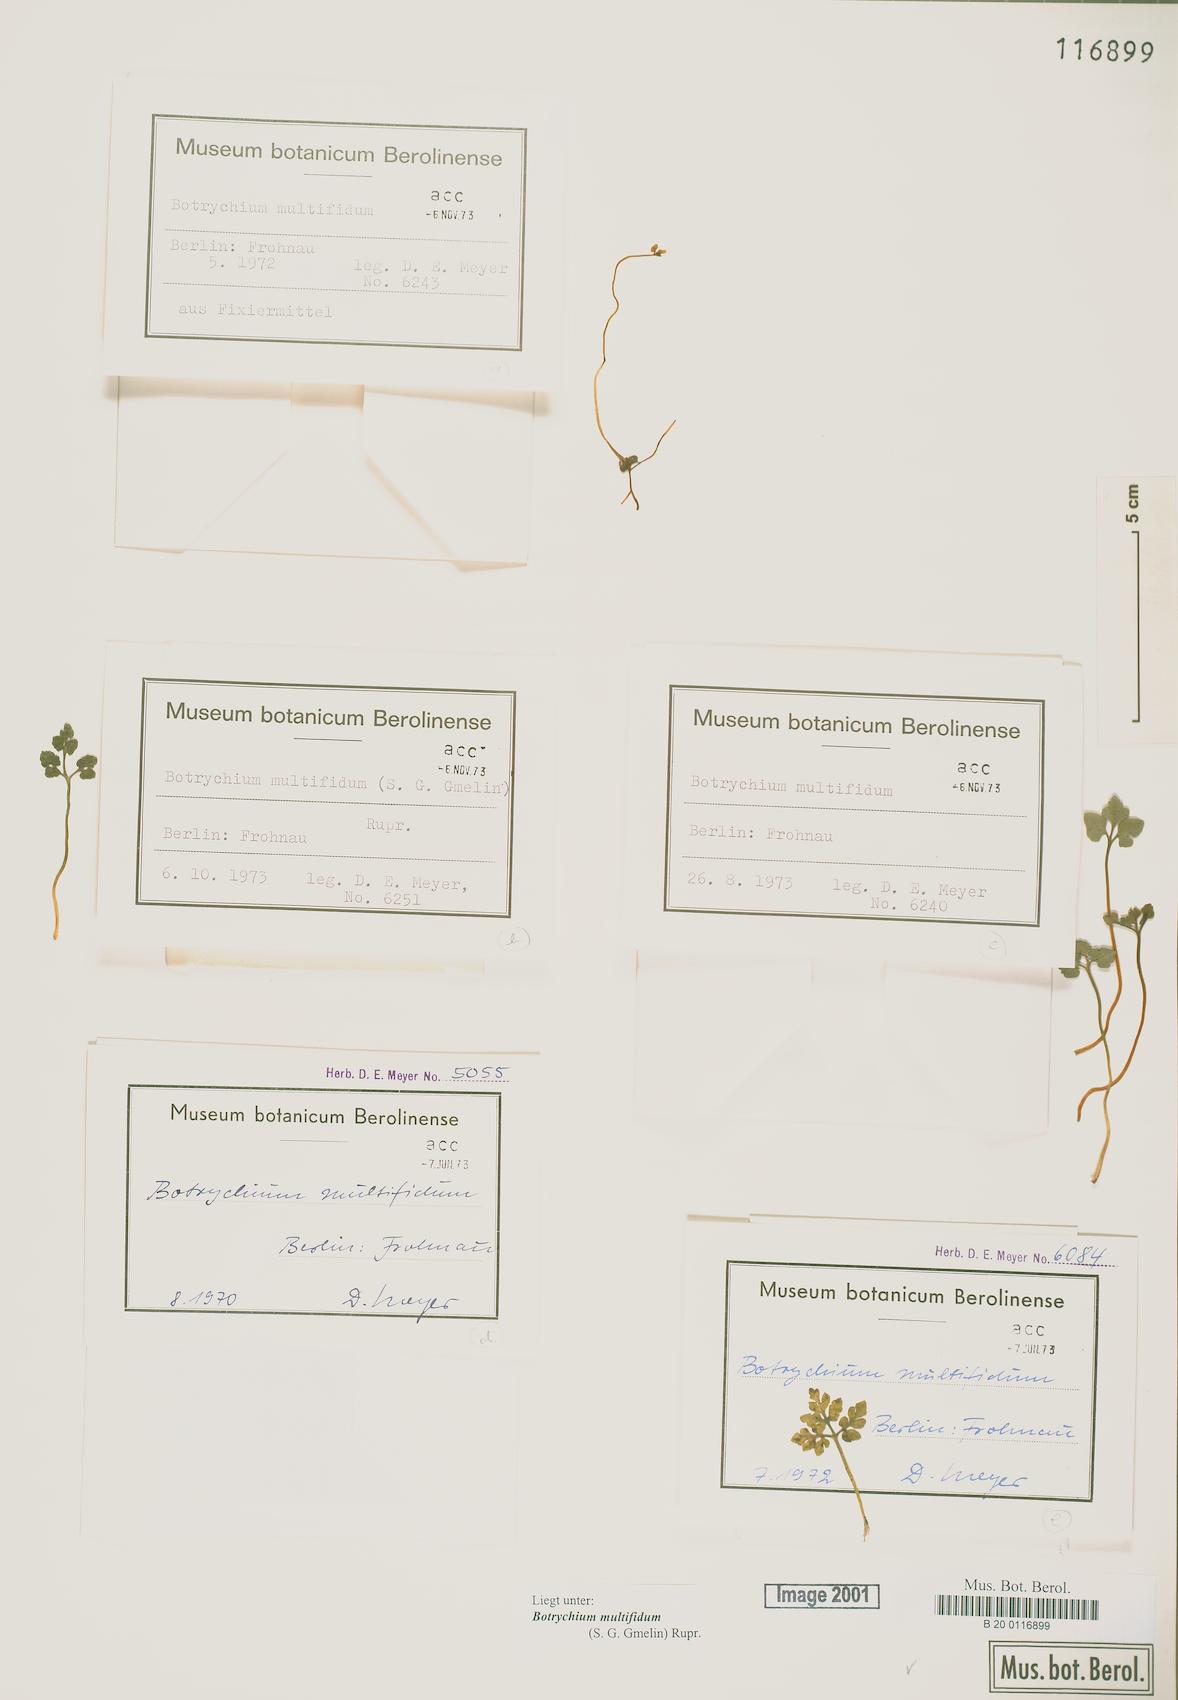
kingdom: Plantae
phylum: Tracheophyta
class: Polypodiopsida
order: Ophioglossales
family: Ophioglossaceae
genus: Sceptridium
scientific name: Sceptridium multifidum
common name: Leathery grape fern
